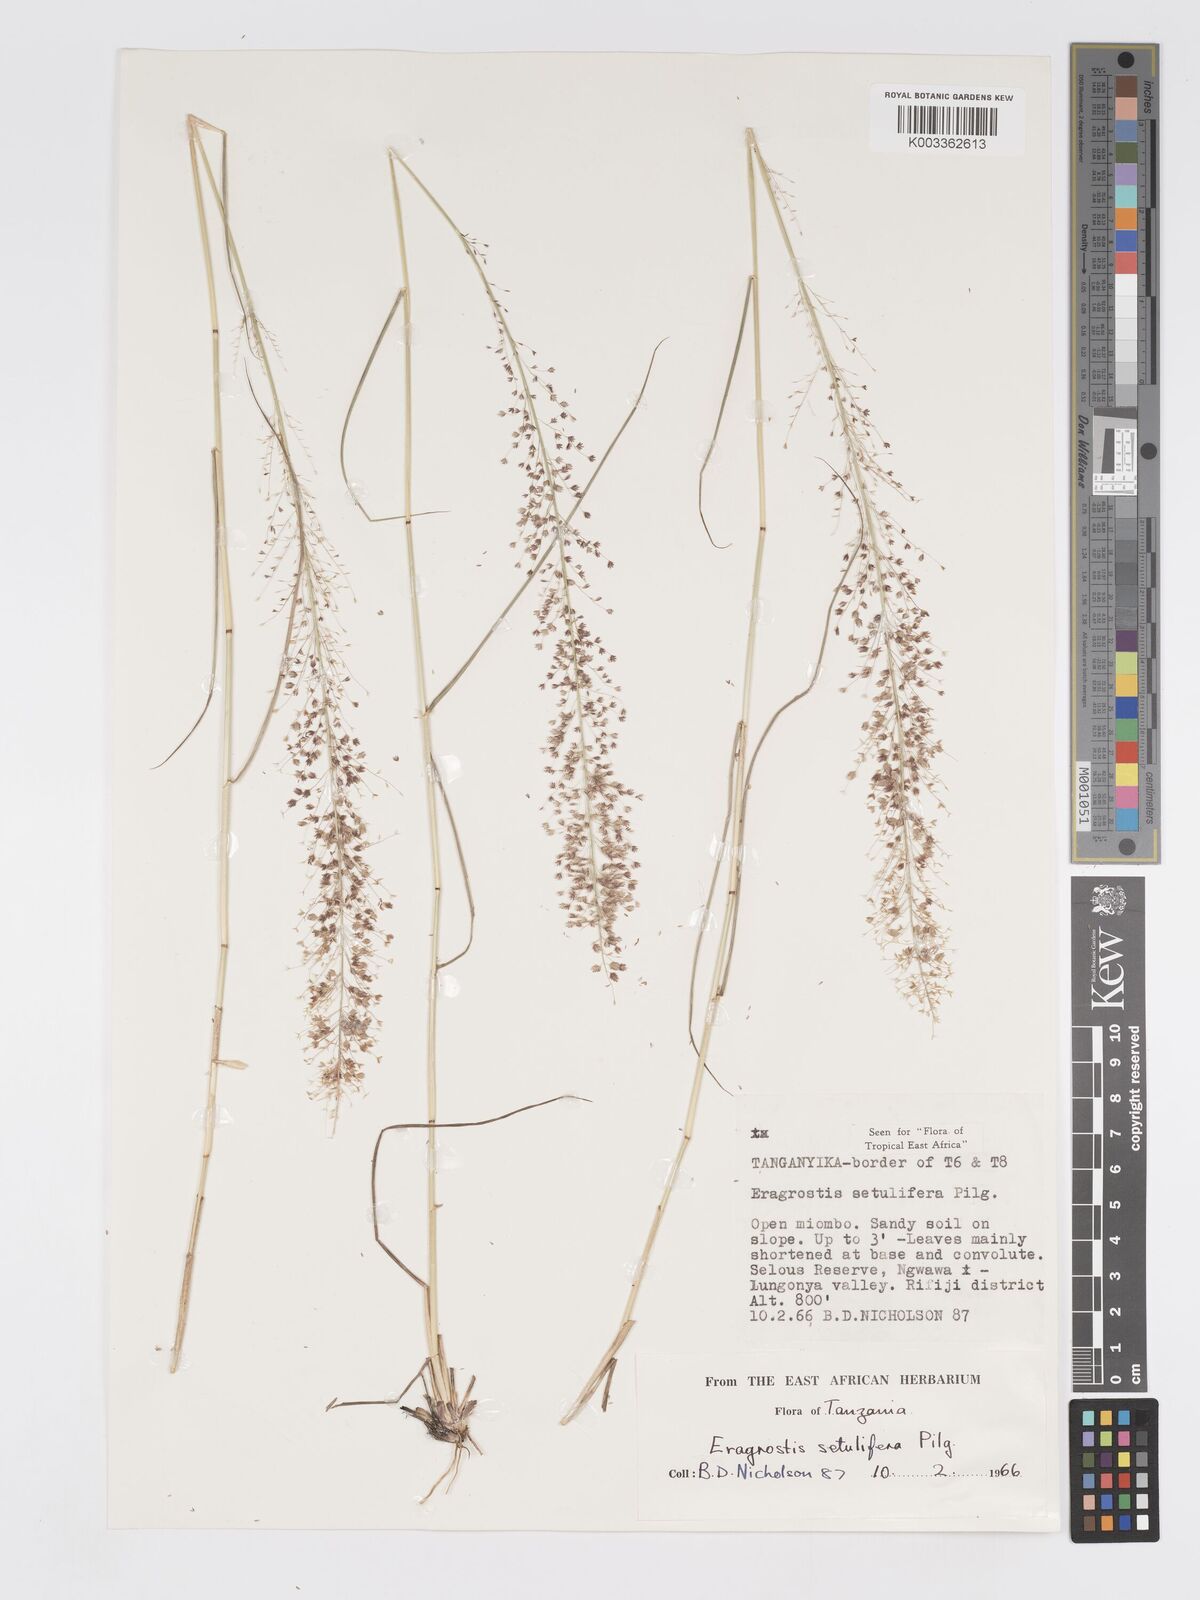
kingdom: Plantae
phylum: Tracheophyta
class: Liliopsida
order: Poales
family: Poaceae
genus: Eragrostis
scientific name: Eragrostis setulifera
